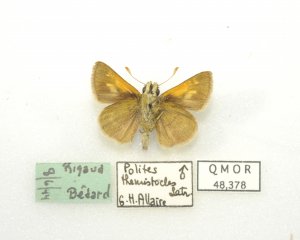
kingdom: Animalia
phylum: Arthropoda
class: Insecta
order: Lepidoptera
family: Hesperiidae
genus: Polites
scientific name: Polites themistocles
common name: Tawny-edged Skipper
